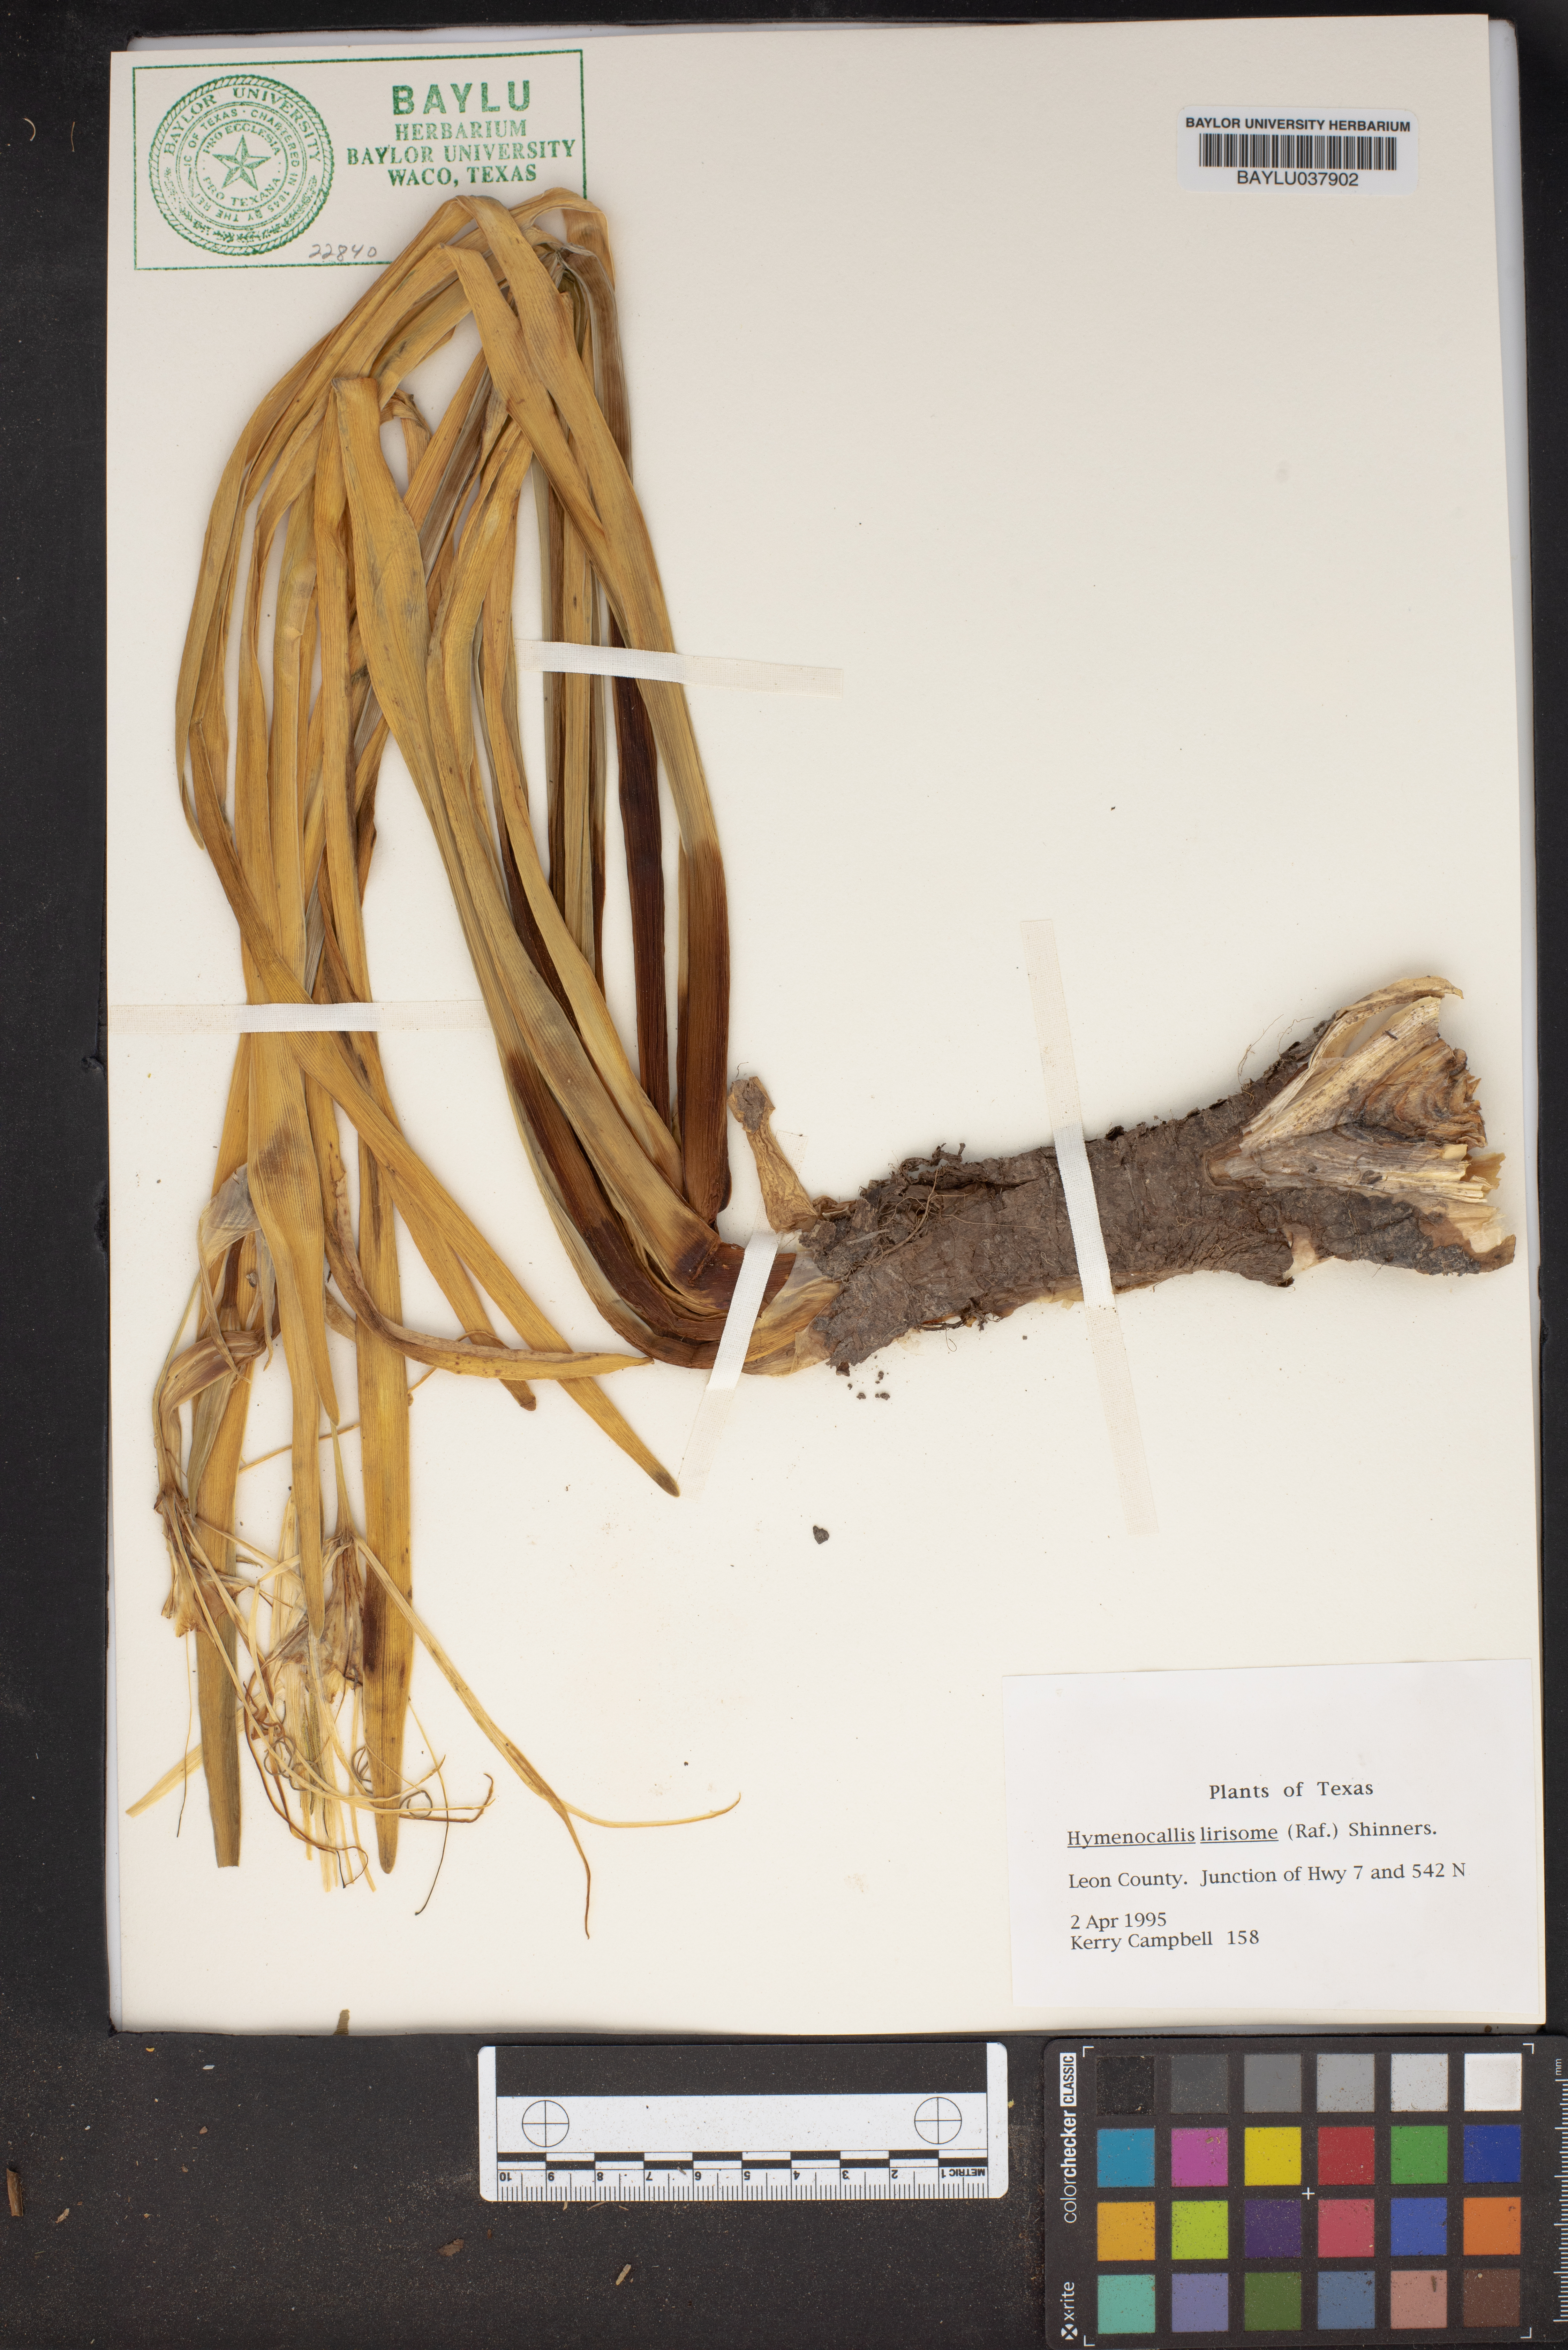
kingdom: Plantae
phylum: Tracheophyta
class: Liliopsida
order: Asparagales
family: Amaryllidaceae
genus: Hymenocallis
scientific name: Hymenocallis liriosme
